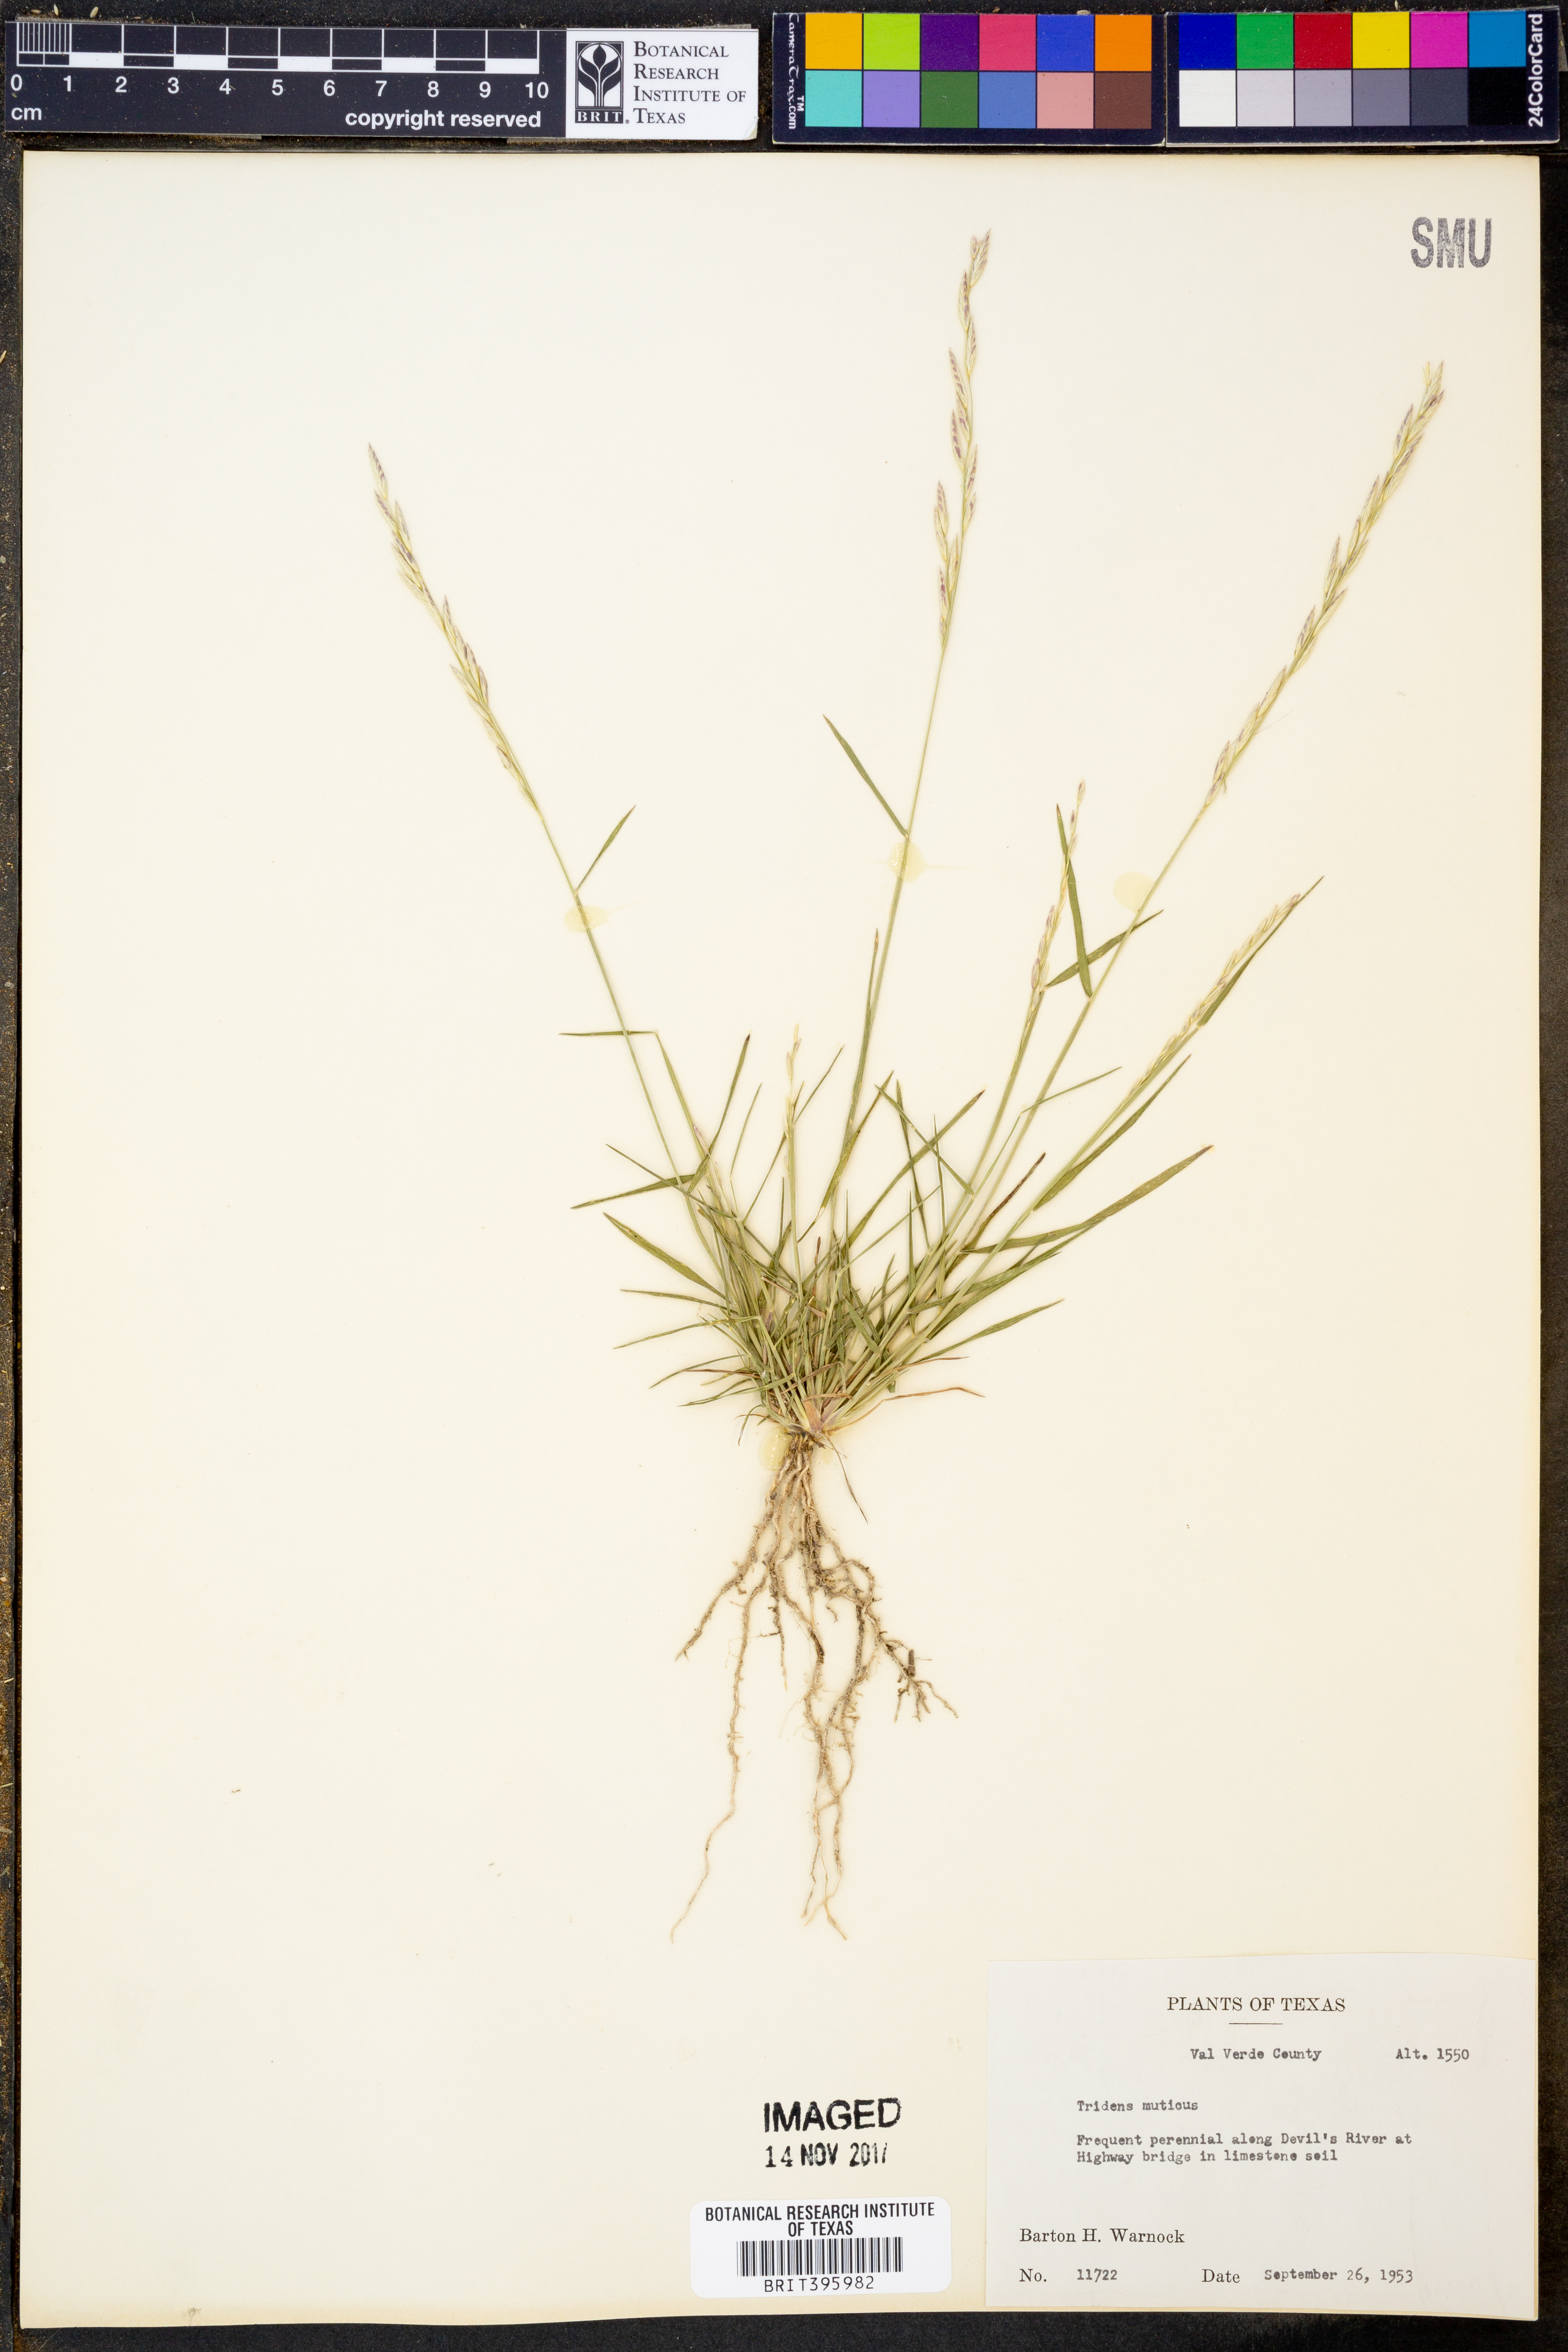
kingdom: Plantae
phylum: Tracheophyta
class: Liliopsida
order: Poales
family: Poaceae
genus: Tridentopsis
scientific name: Tridentopsis mutica
